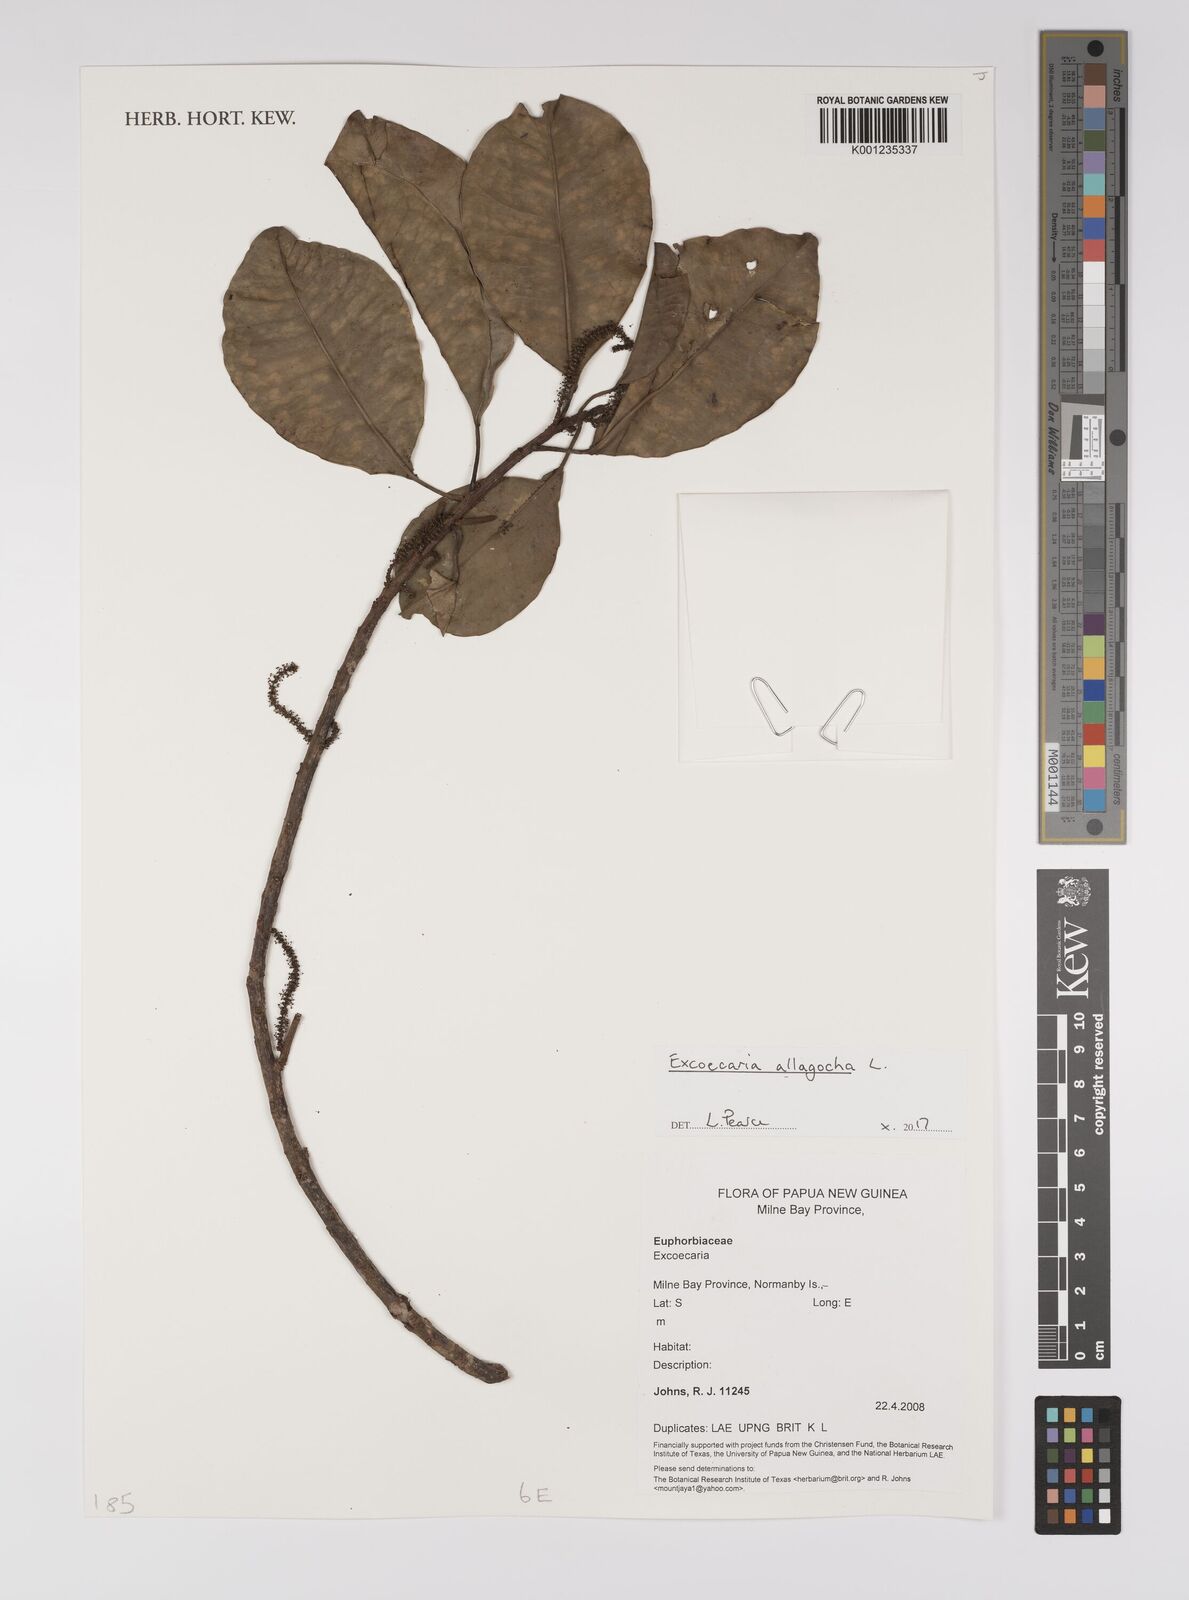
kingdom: Plantae
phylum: Tracheophyta
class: Magnoliopsida
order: Malpighiales
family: Euphorbiaceae
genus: Excoecaria
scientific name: Excoecaria
